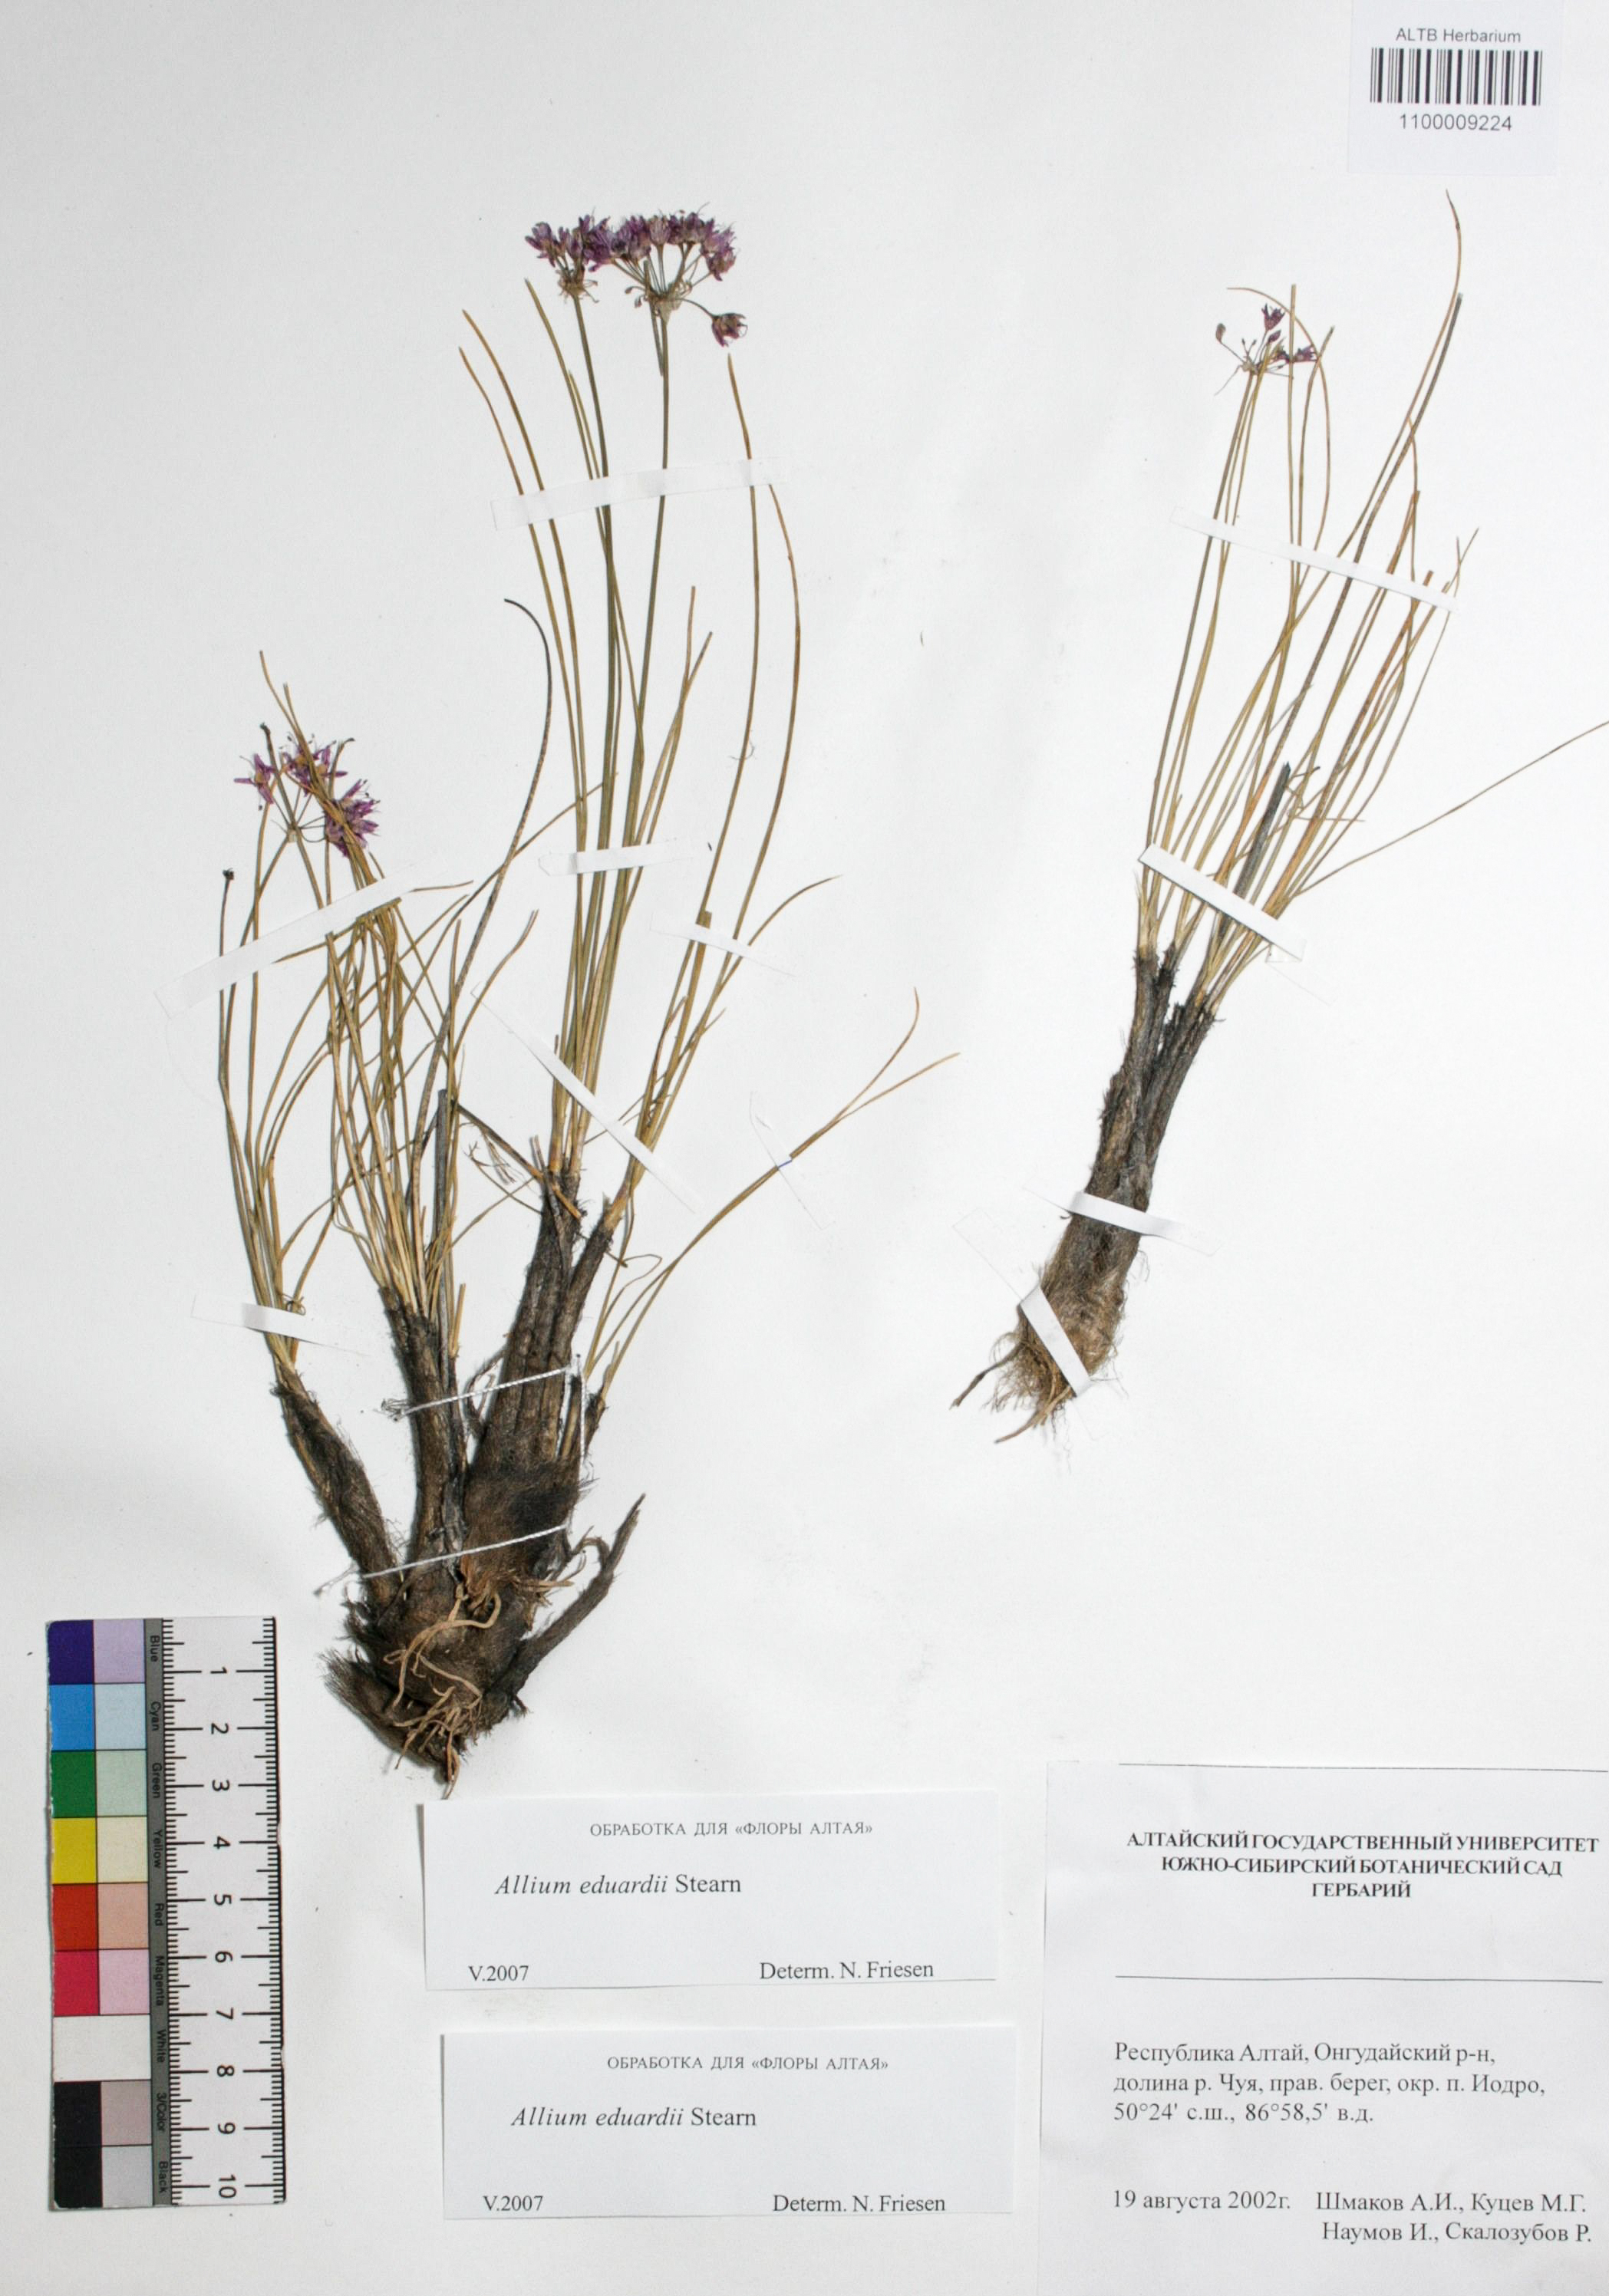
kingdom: Plantae
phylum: Tracheophyta
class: Liliopsida
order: Asparagales
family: Amaryllidaceae
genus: Allium
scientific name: Allium eduardi
